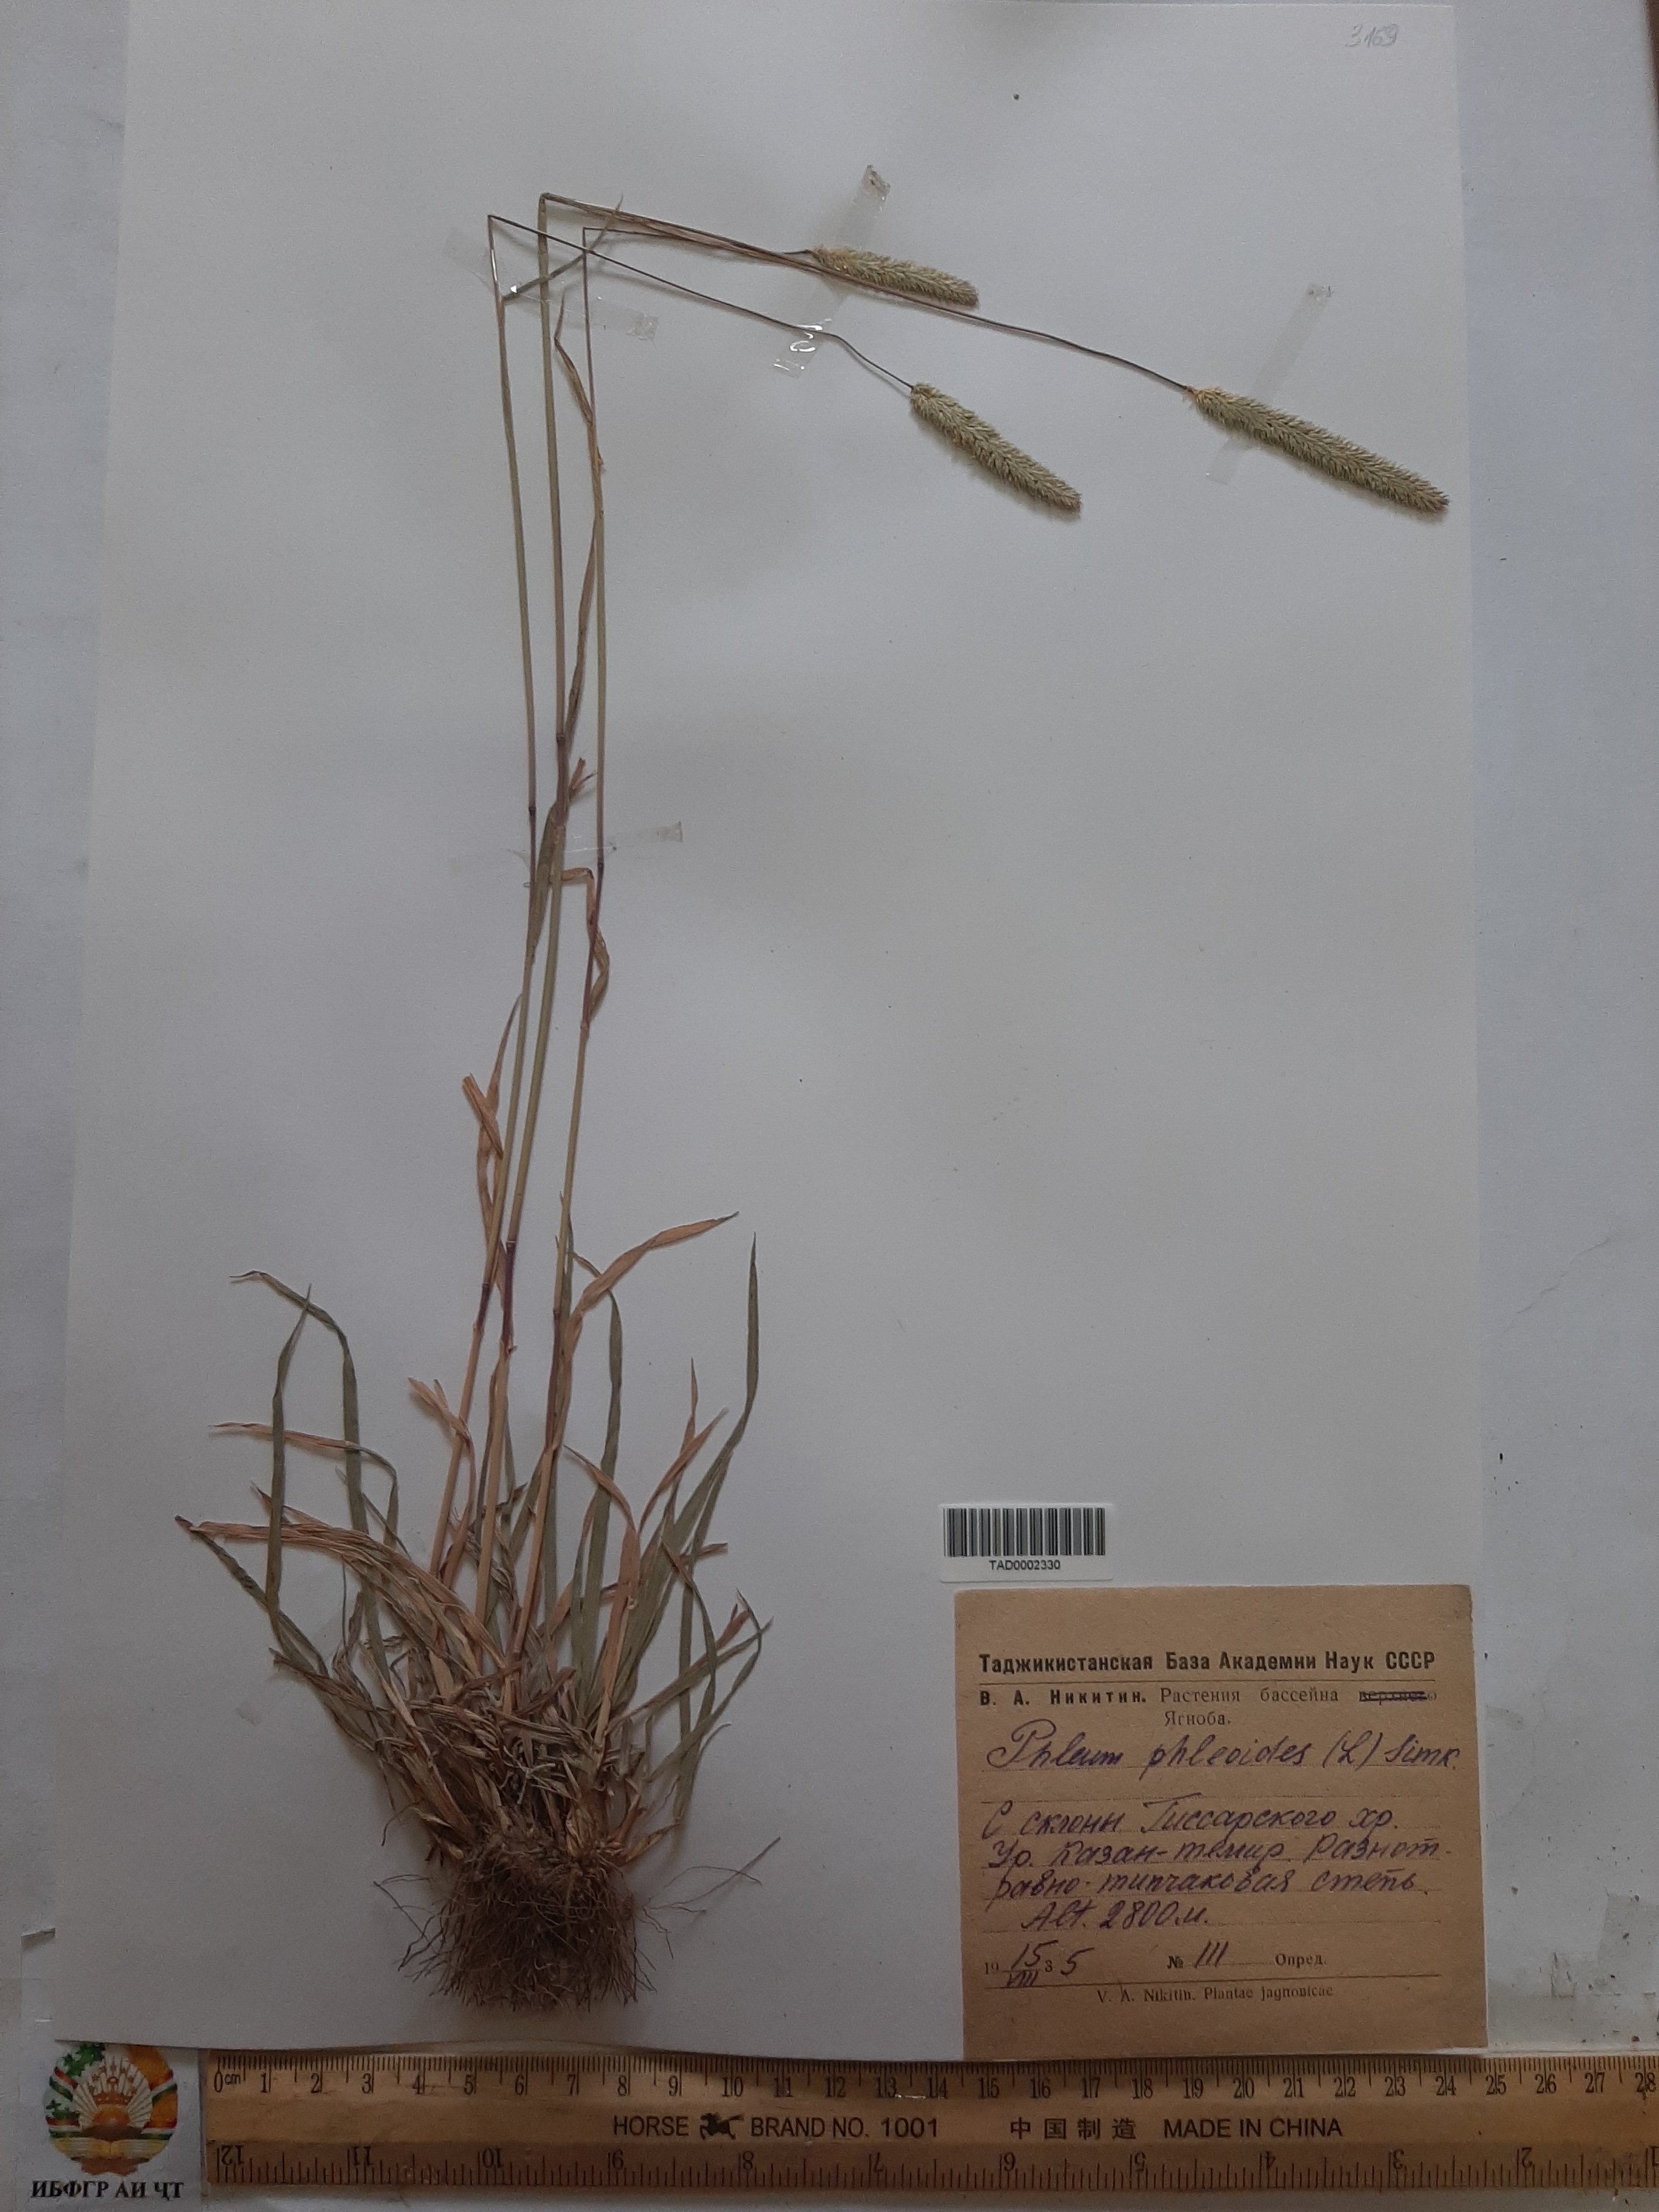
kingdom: Plantae
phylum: Tracheophyta
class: Liliopsida
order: Poales
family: Poaceae
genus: Phleum
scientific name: Phleum phleoides
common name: Purple-stem cat's-tail
